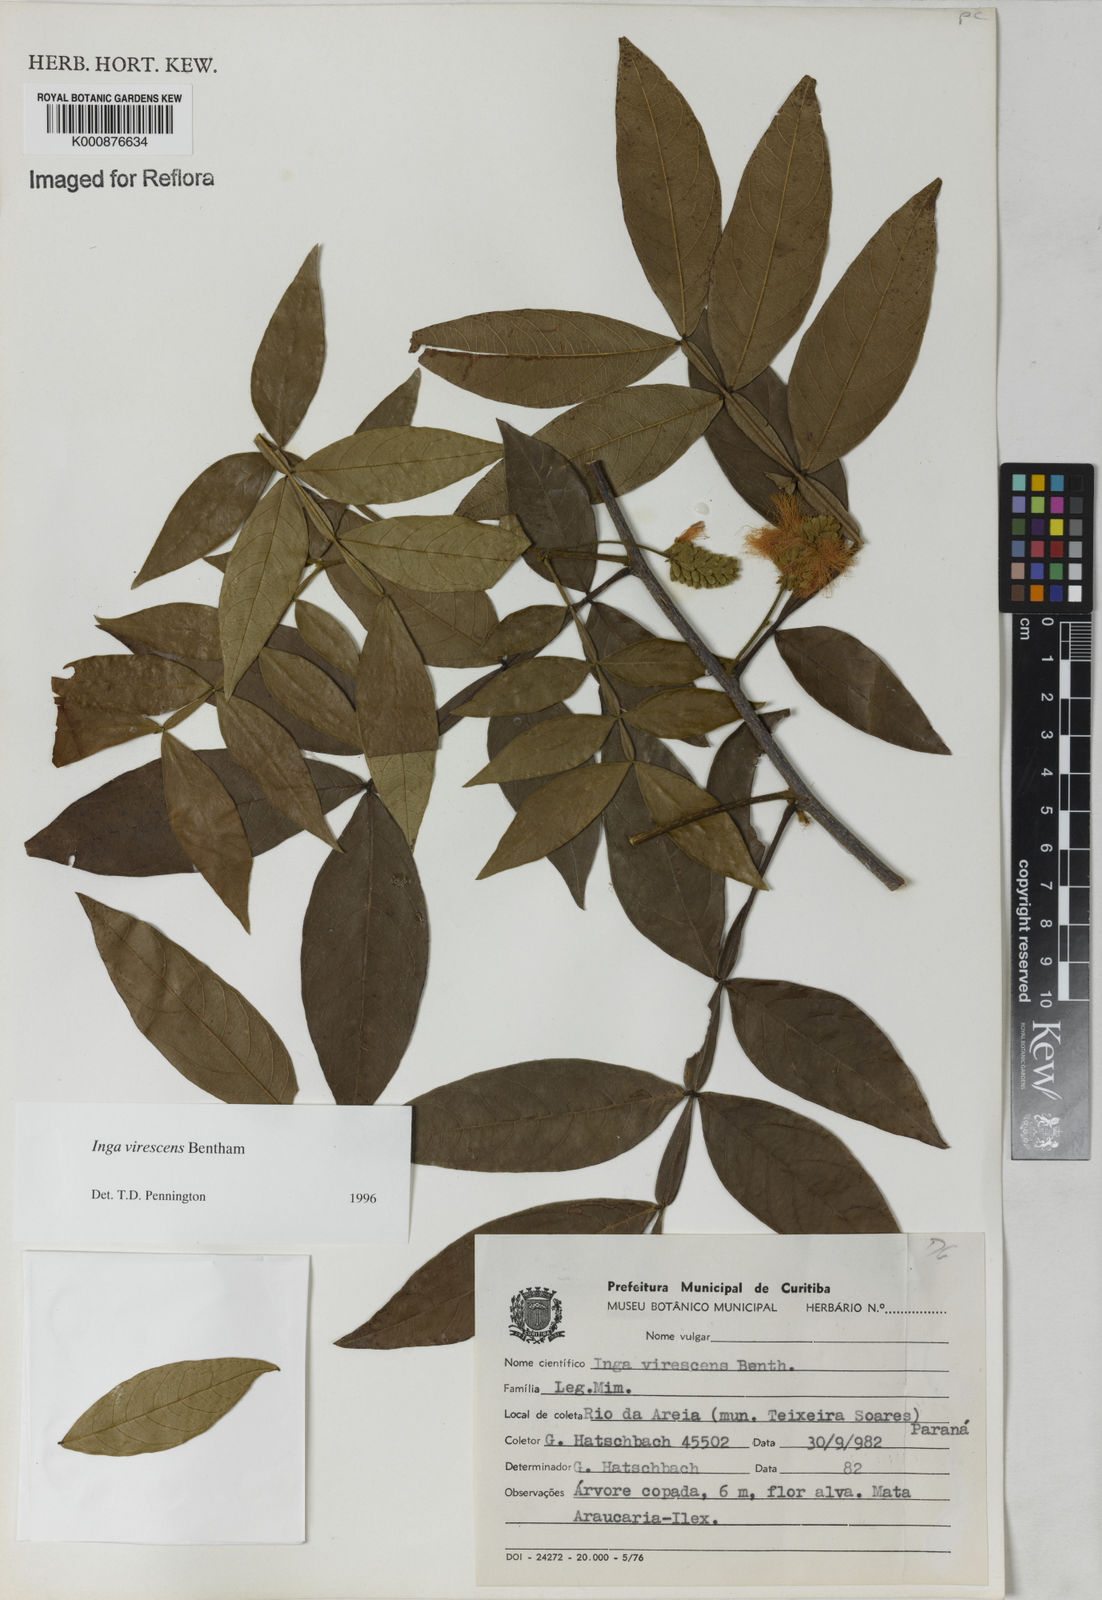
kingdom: Plantae
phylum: Tracheophyta
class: Magnoliopsida
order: Fabales
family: Fabaceae
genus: Inga
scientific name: Inga virescens
